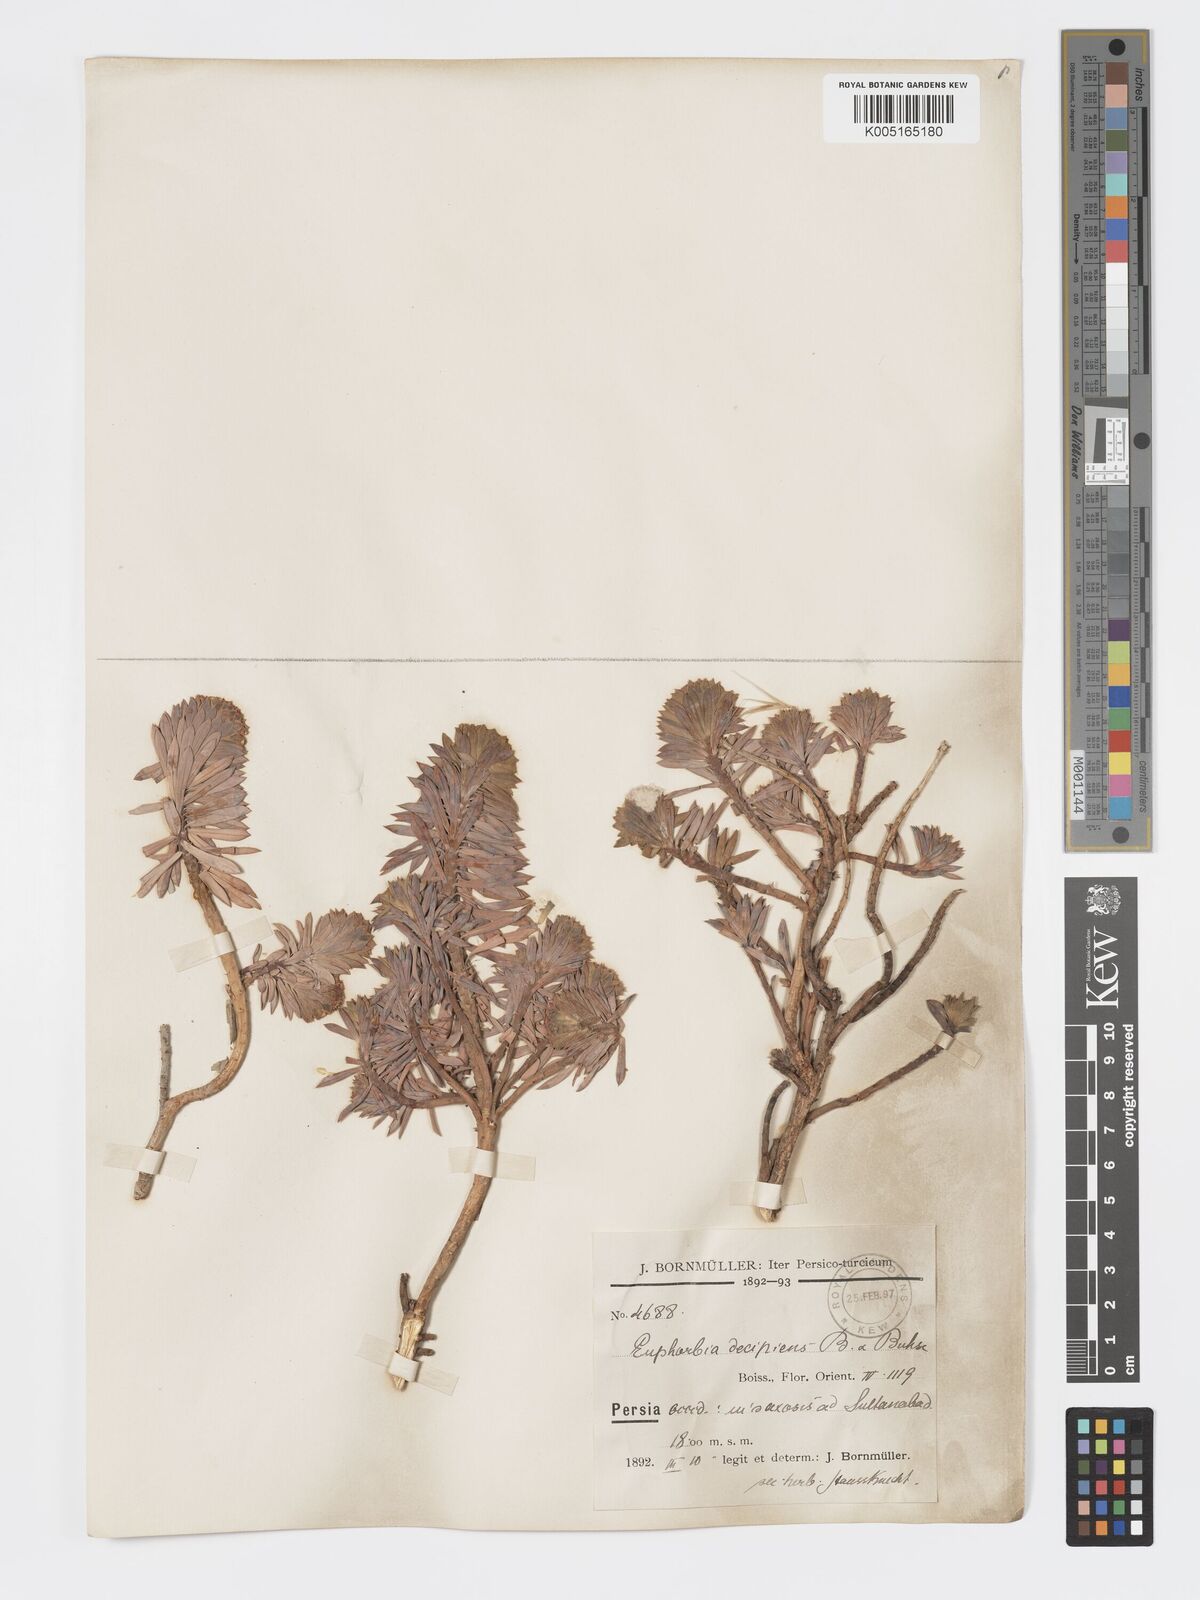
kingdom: Plantae
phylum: Tracheophyta
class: Magnoliopsida
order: Malpighiales
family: Euphorbiaceae
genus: Euphorbia
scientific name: Euphorbia polycaulis
